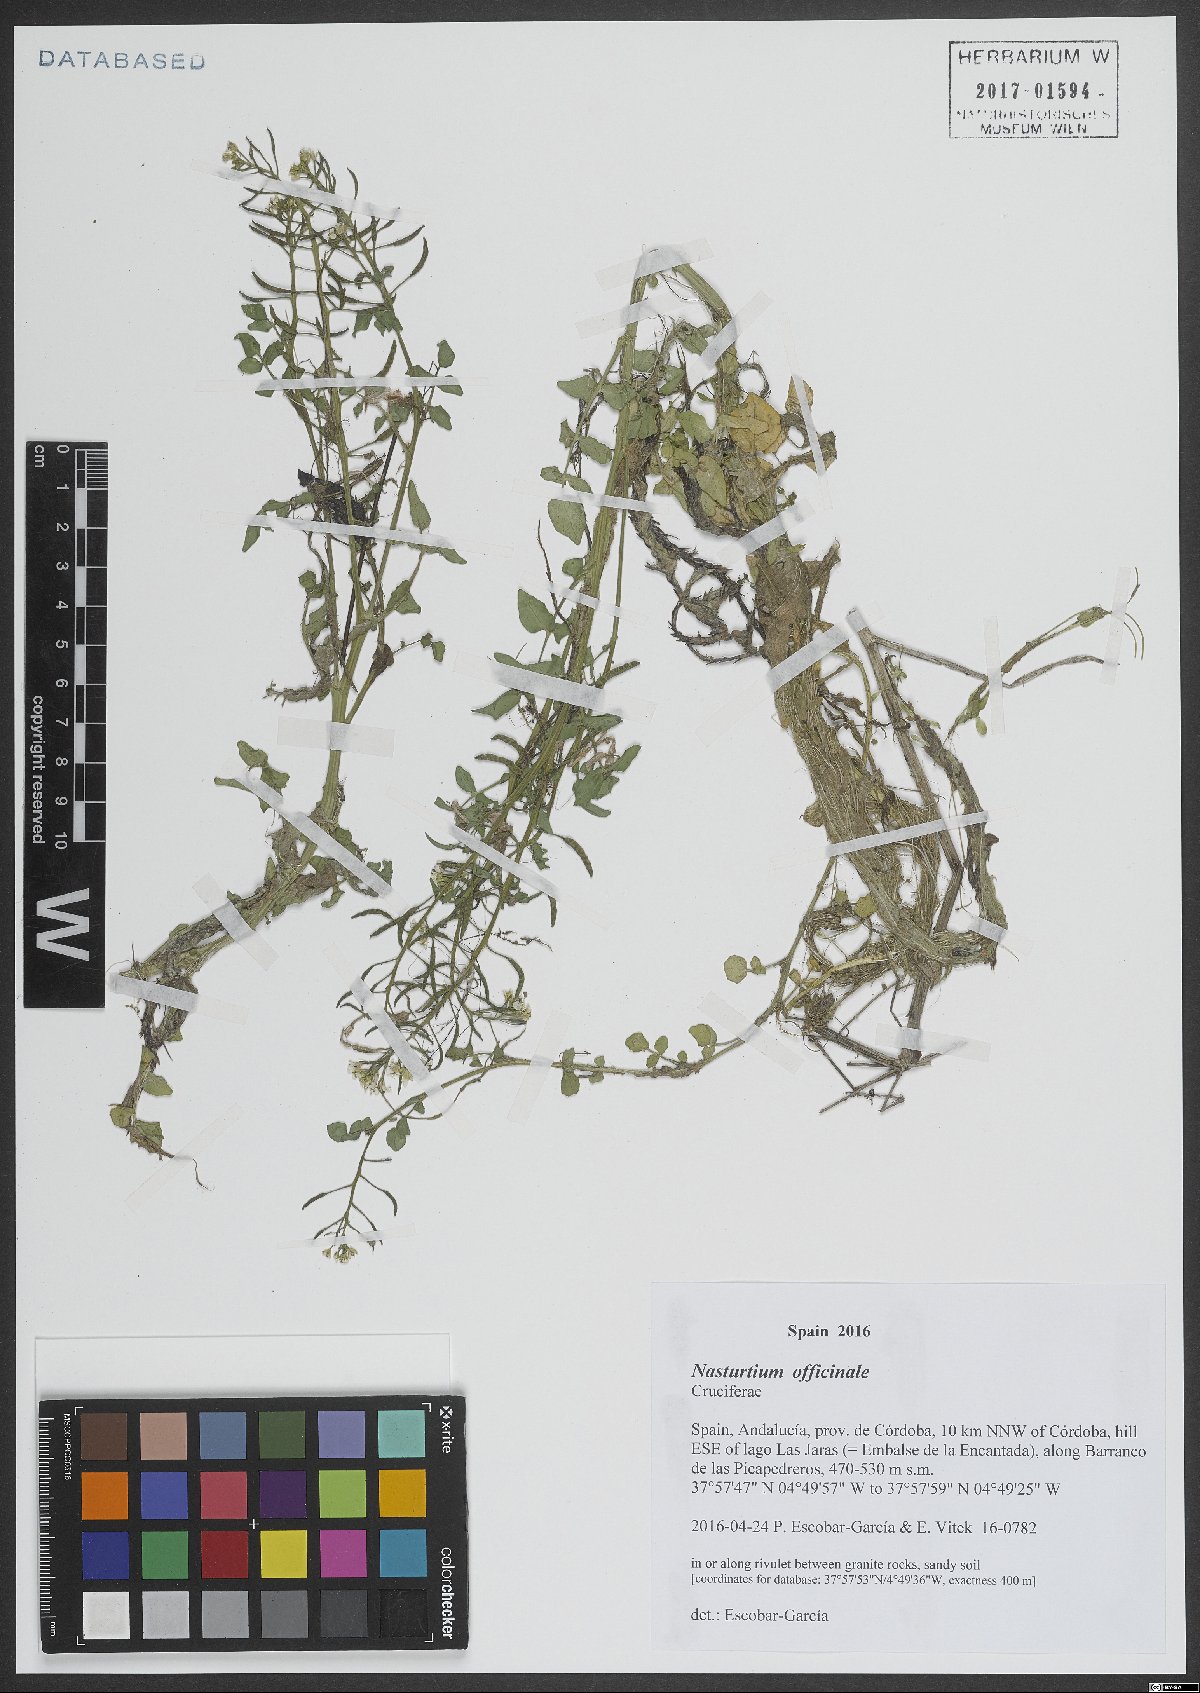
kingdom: Plantae
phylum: Tracheophyta
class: Magnoliopsida
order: Brassicales
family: Brassicaceae
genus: Nasturtium
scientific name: Nasturtium officinale
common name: Watercress
